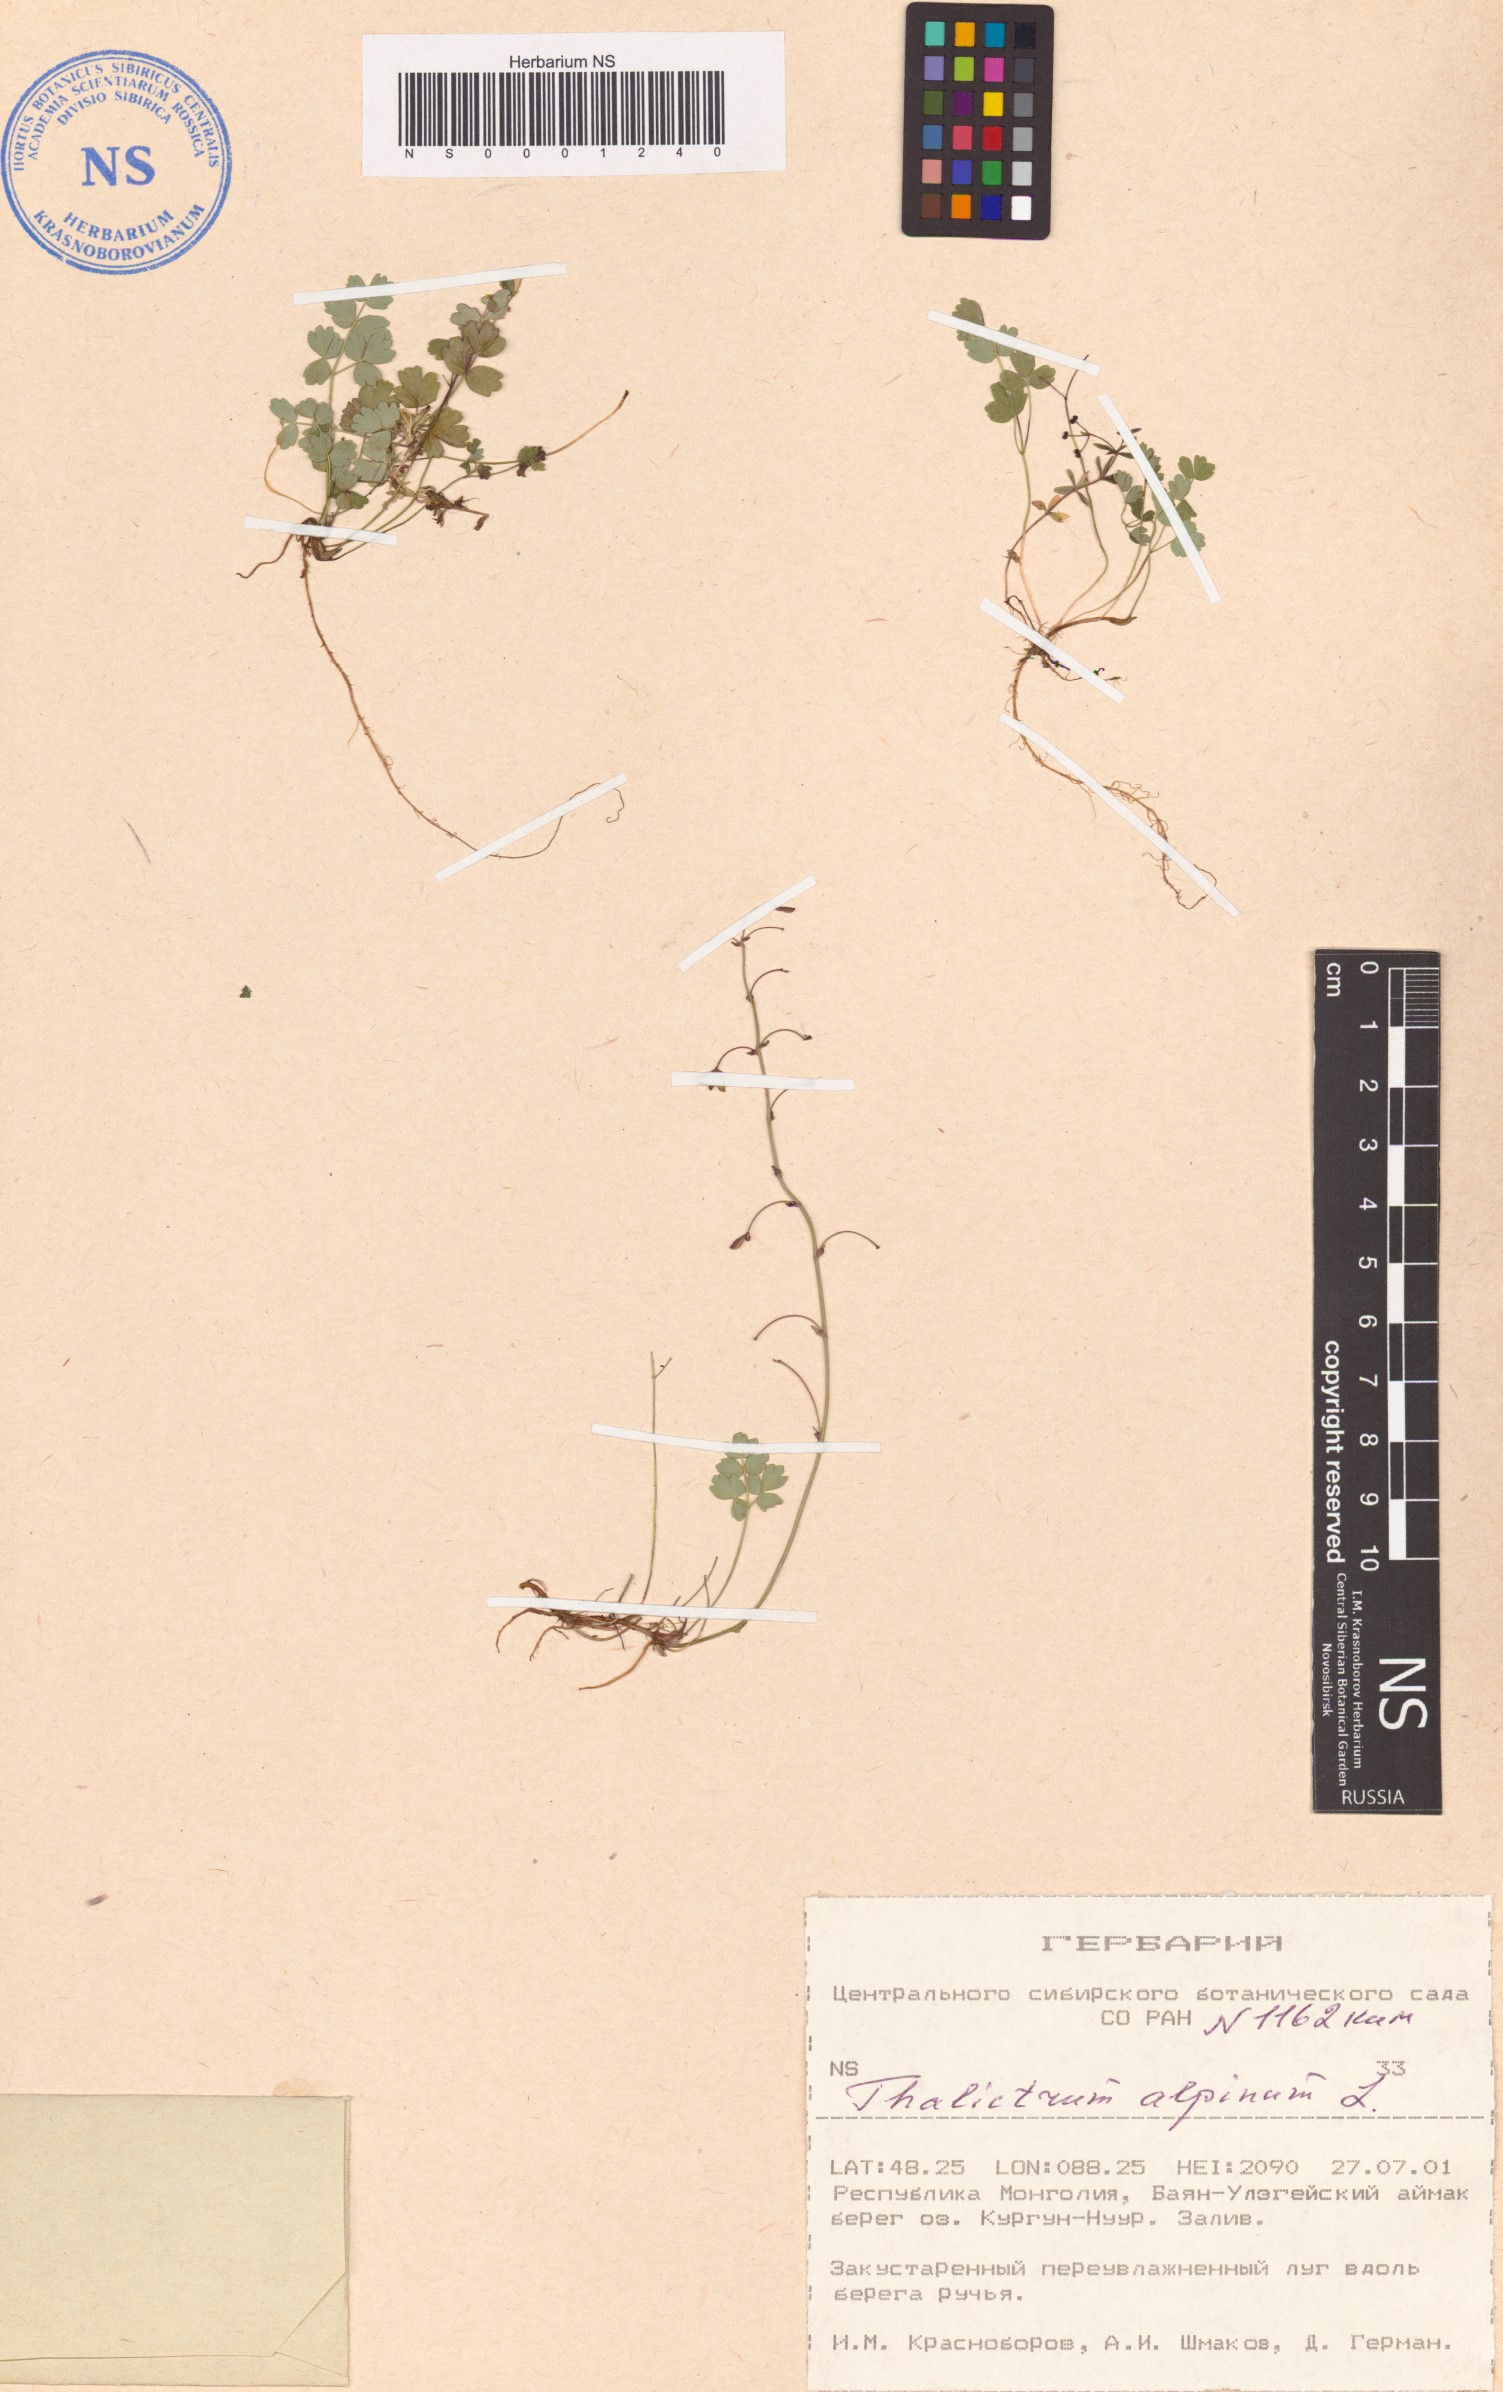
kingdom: Plantae
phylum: Tracheophyta
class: Magnoliopsida
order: Ranunculales
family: Ranunculaceae
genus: Thalictrum
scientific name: Thalictrum alpinum
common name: Alpine meadow-rue
